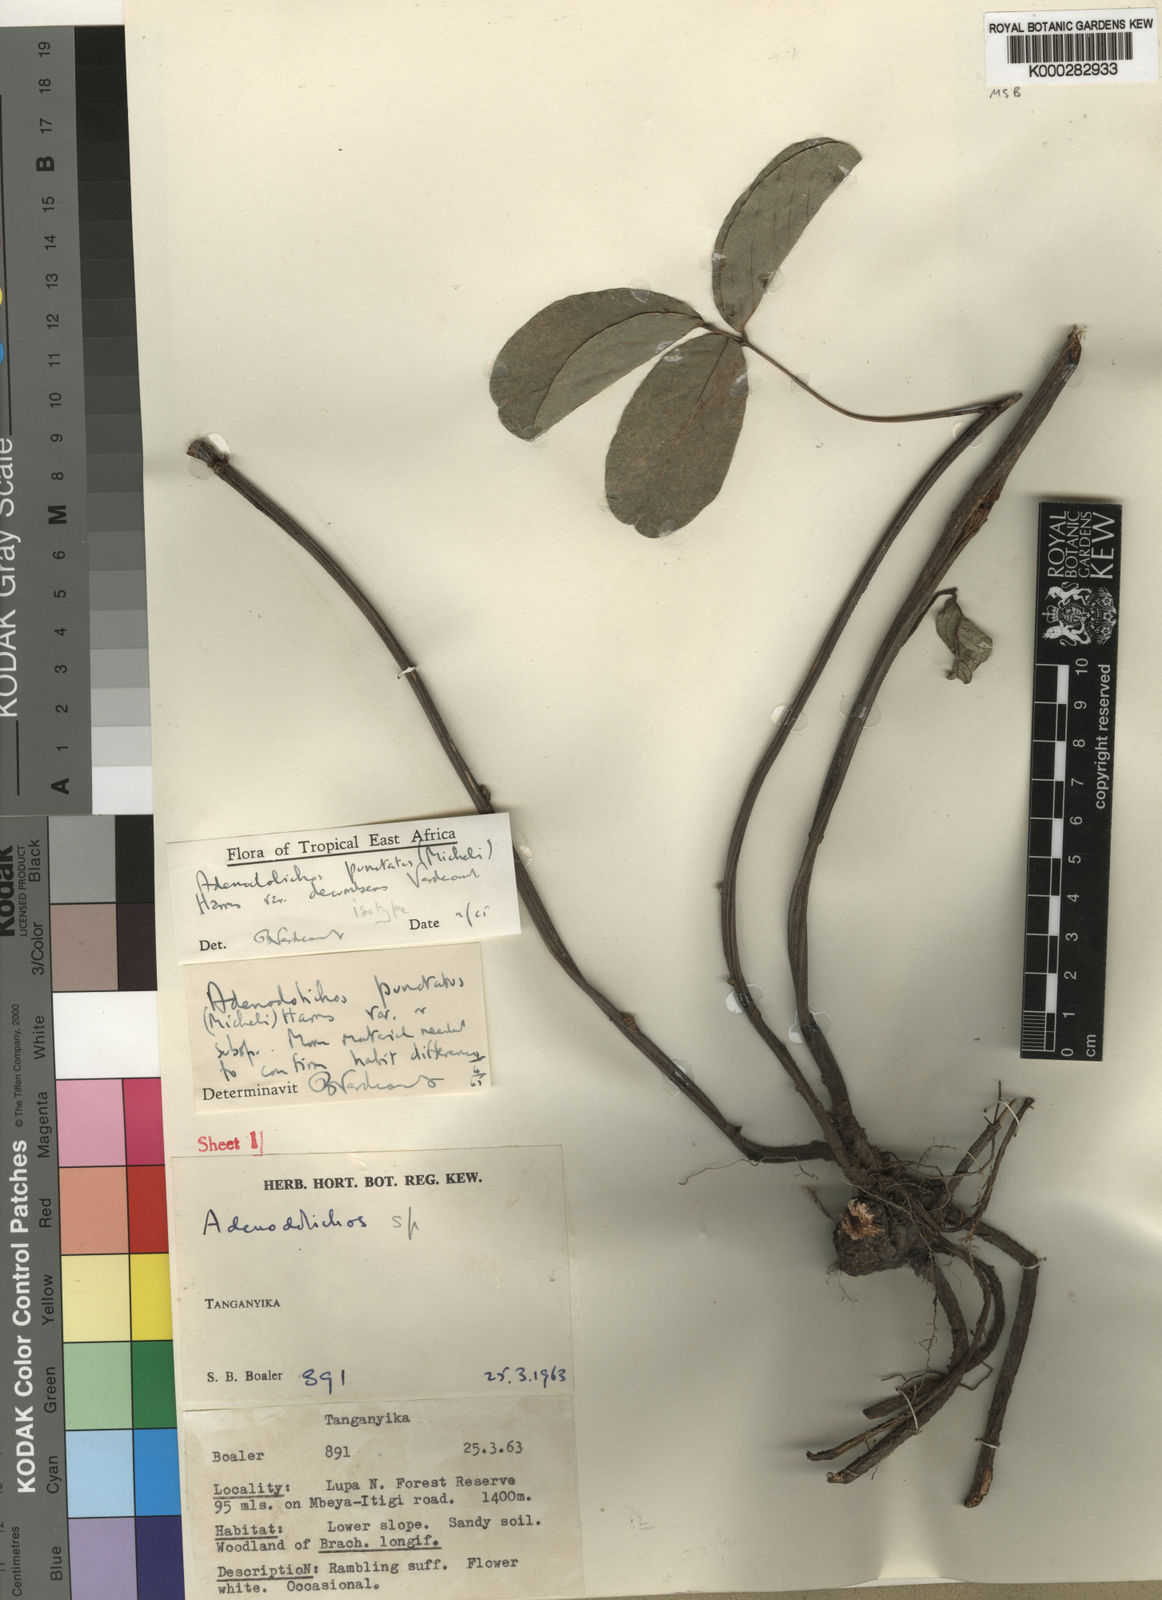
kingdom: Plantae
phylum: Tracheophyta
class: Magnoliopsida
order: Fabales
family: Fabaceae
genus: Adenodolichos
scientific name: Adenodolichos punctatus
